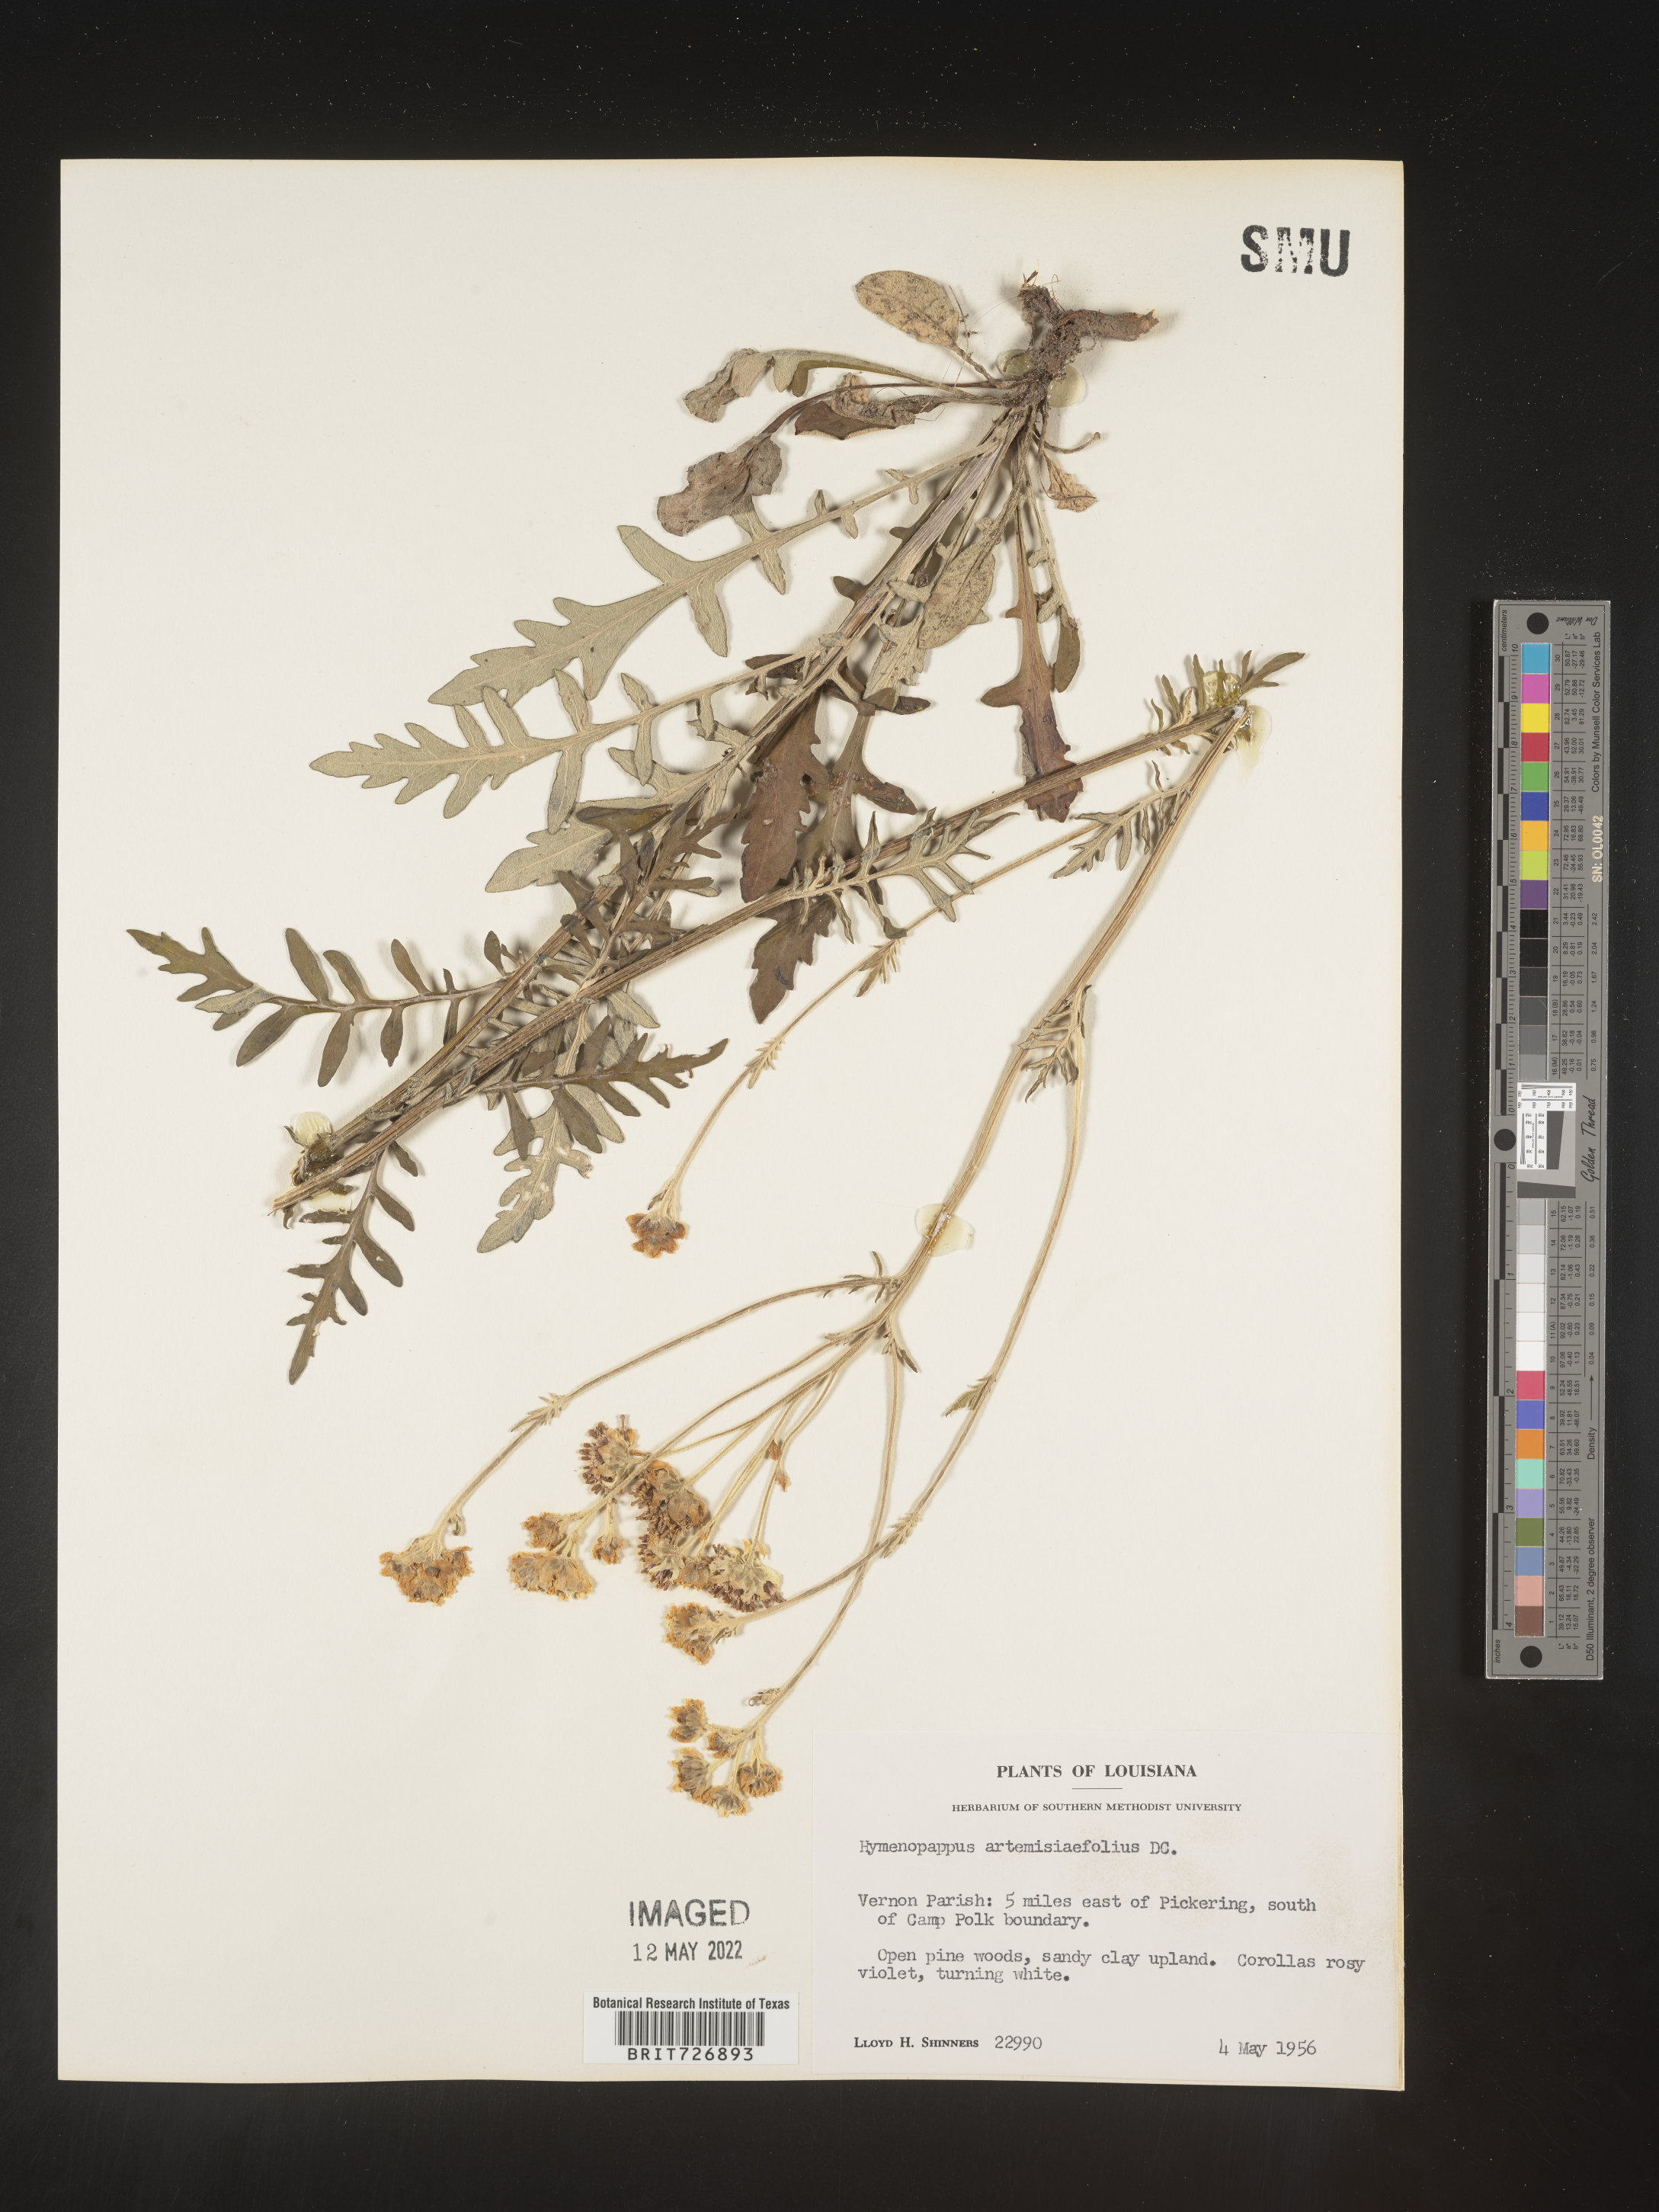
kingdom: Plantae
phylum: Tracheophyta
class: Magnoliopsida
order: Asterales
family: Asteraceae
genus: Hymenopappus
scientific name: Hymenopappus artemisiifolius
